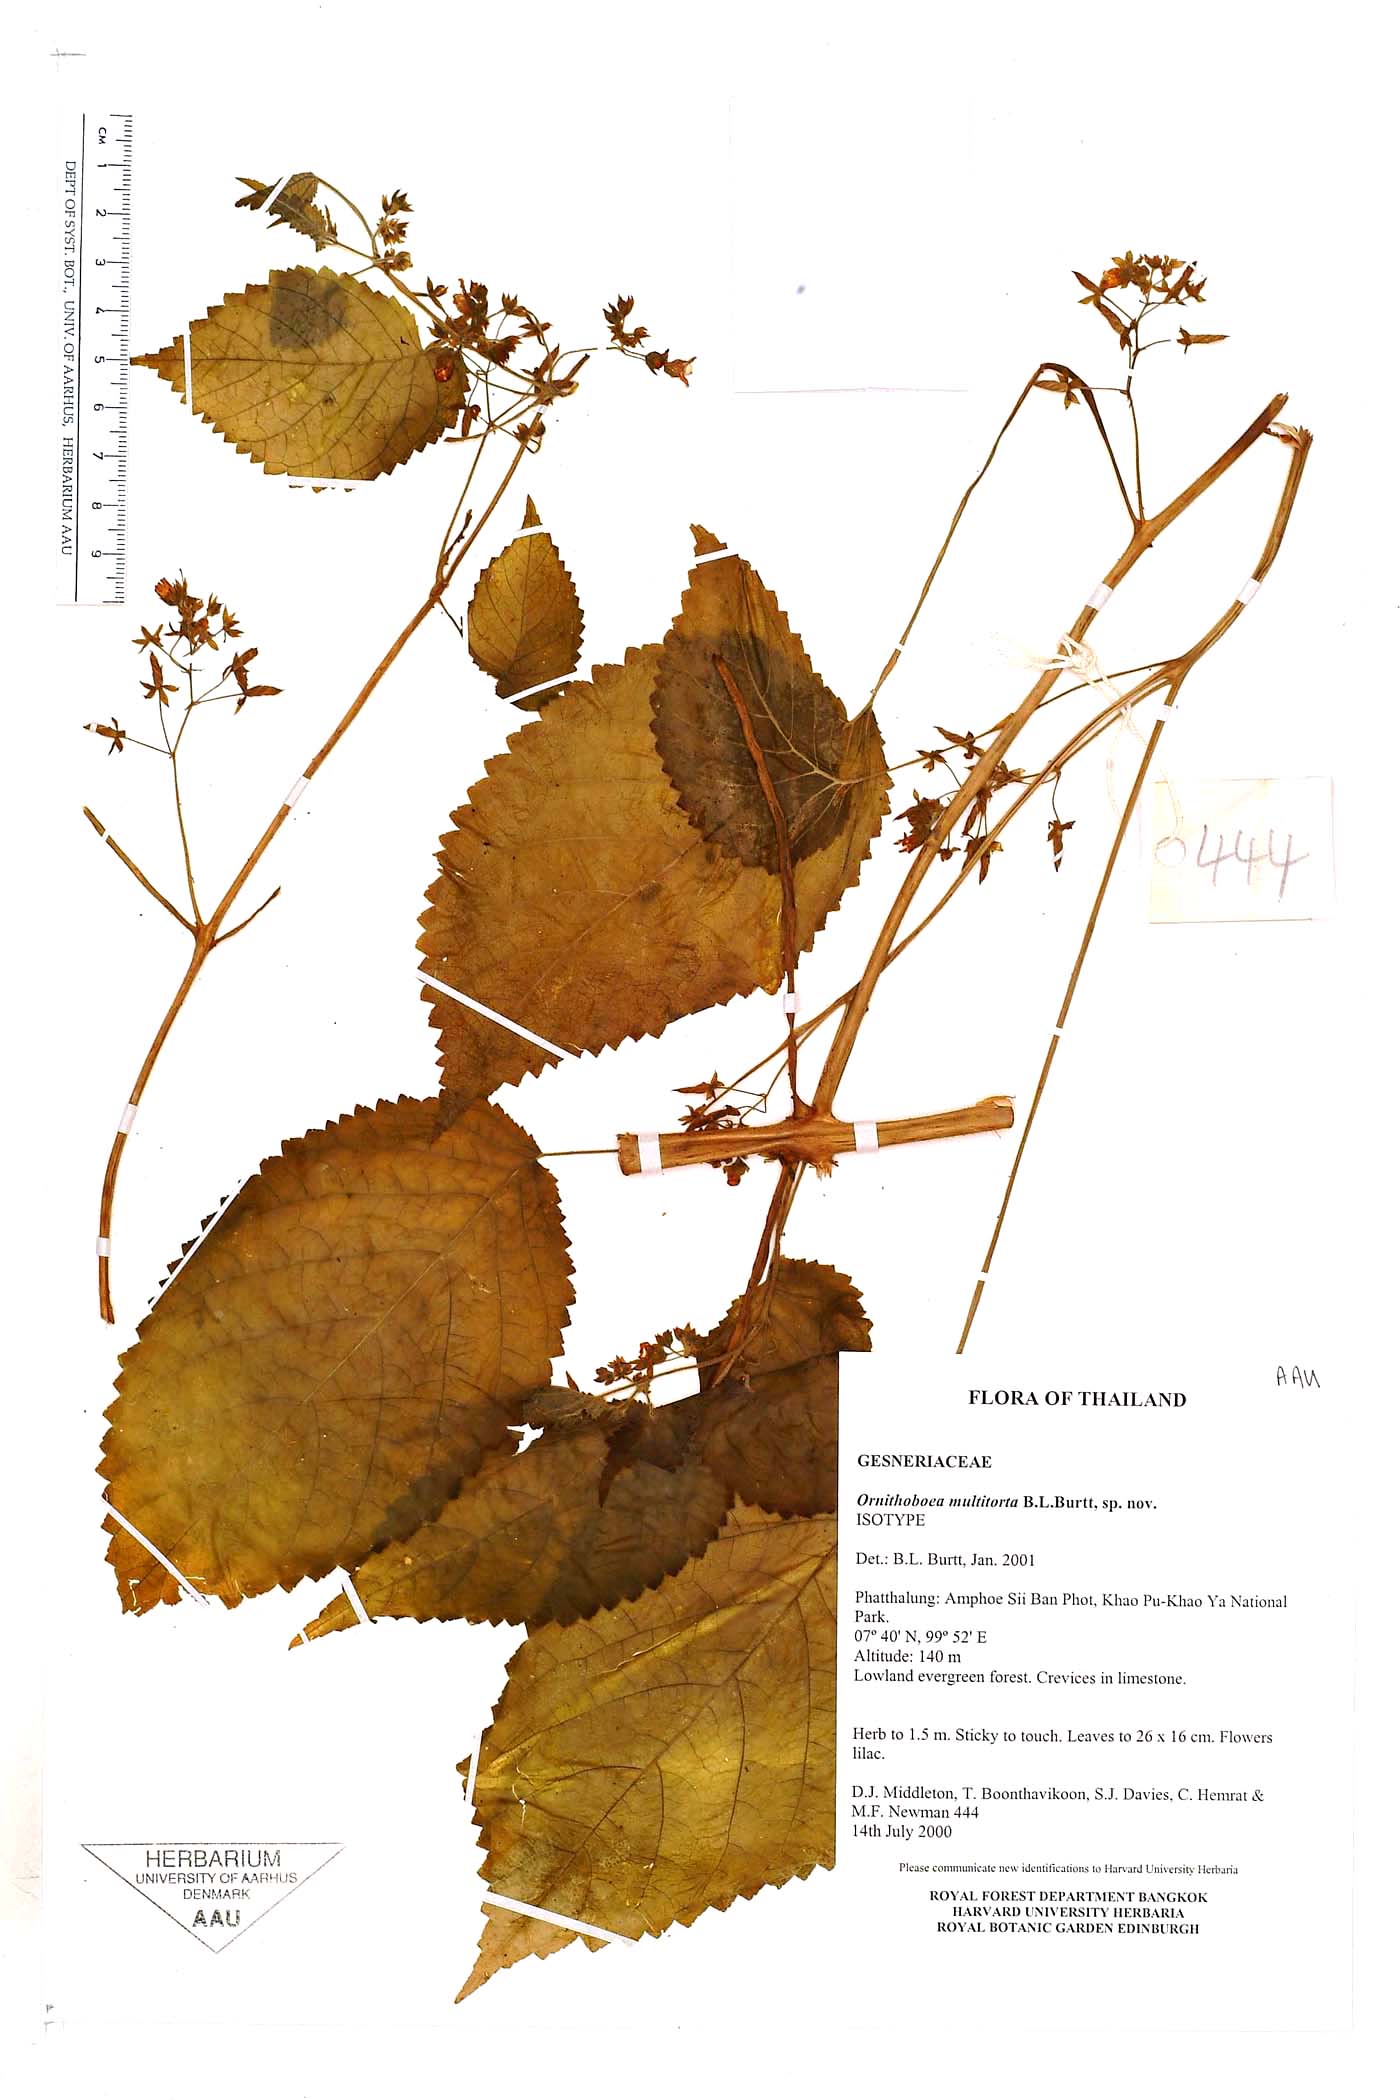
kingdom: Plantae
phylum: Tracheophyta
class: Magnoliopsida
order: Lamiales
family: Gesneriaceae
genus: Ornithoboea
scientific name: Ornithoboea multitorta
